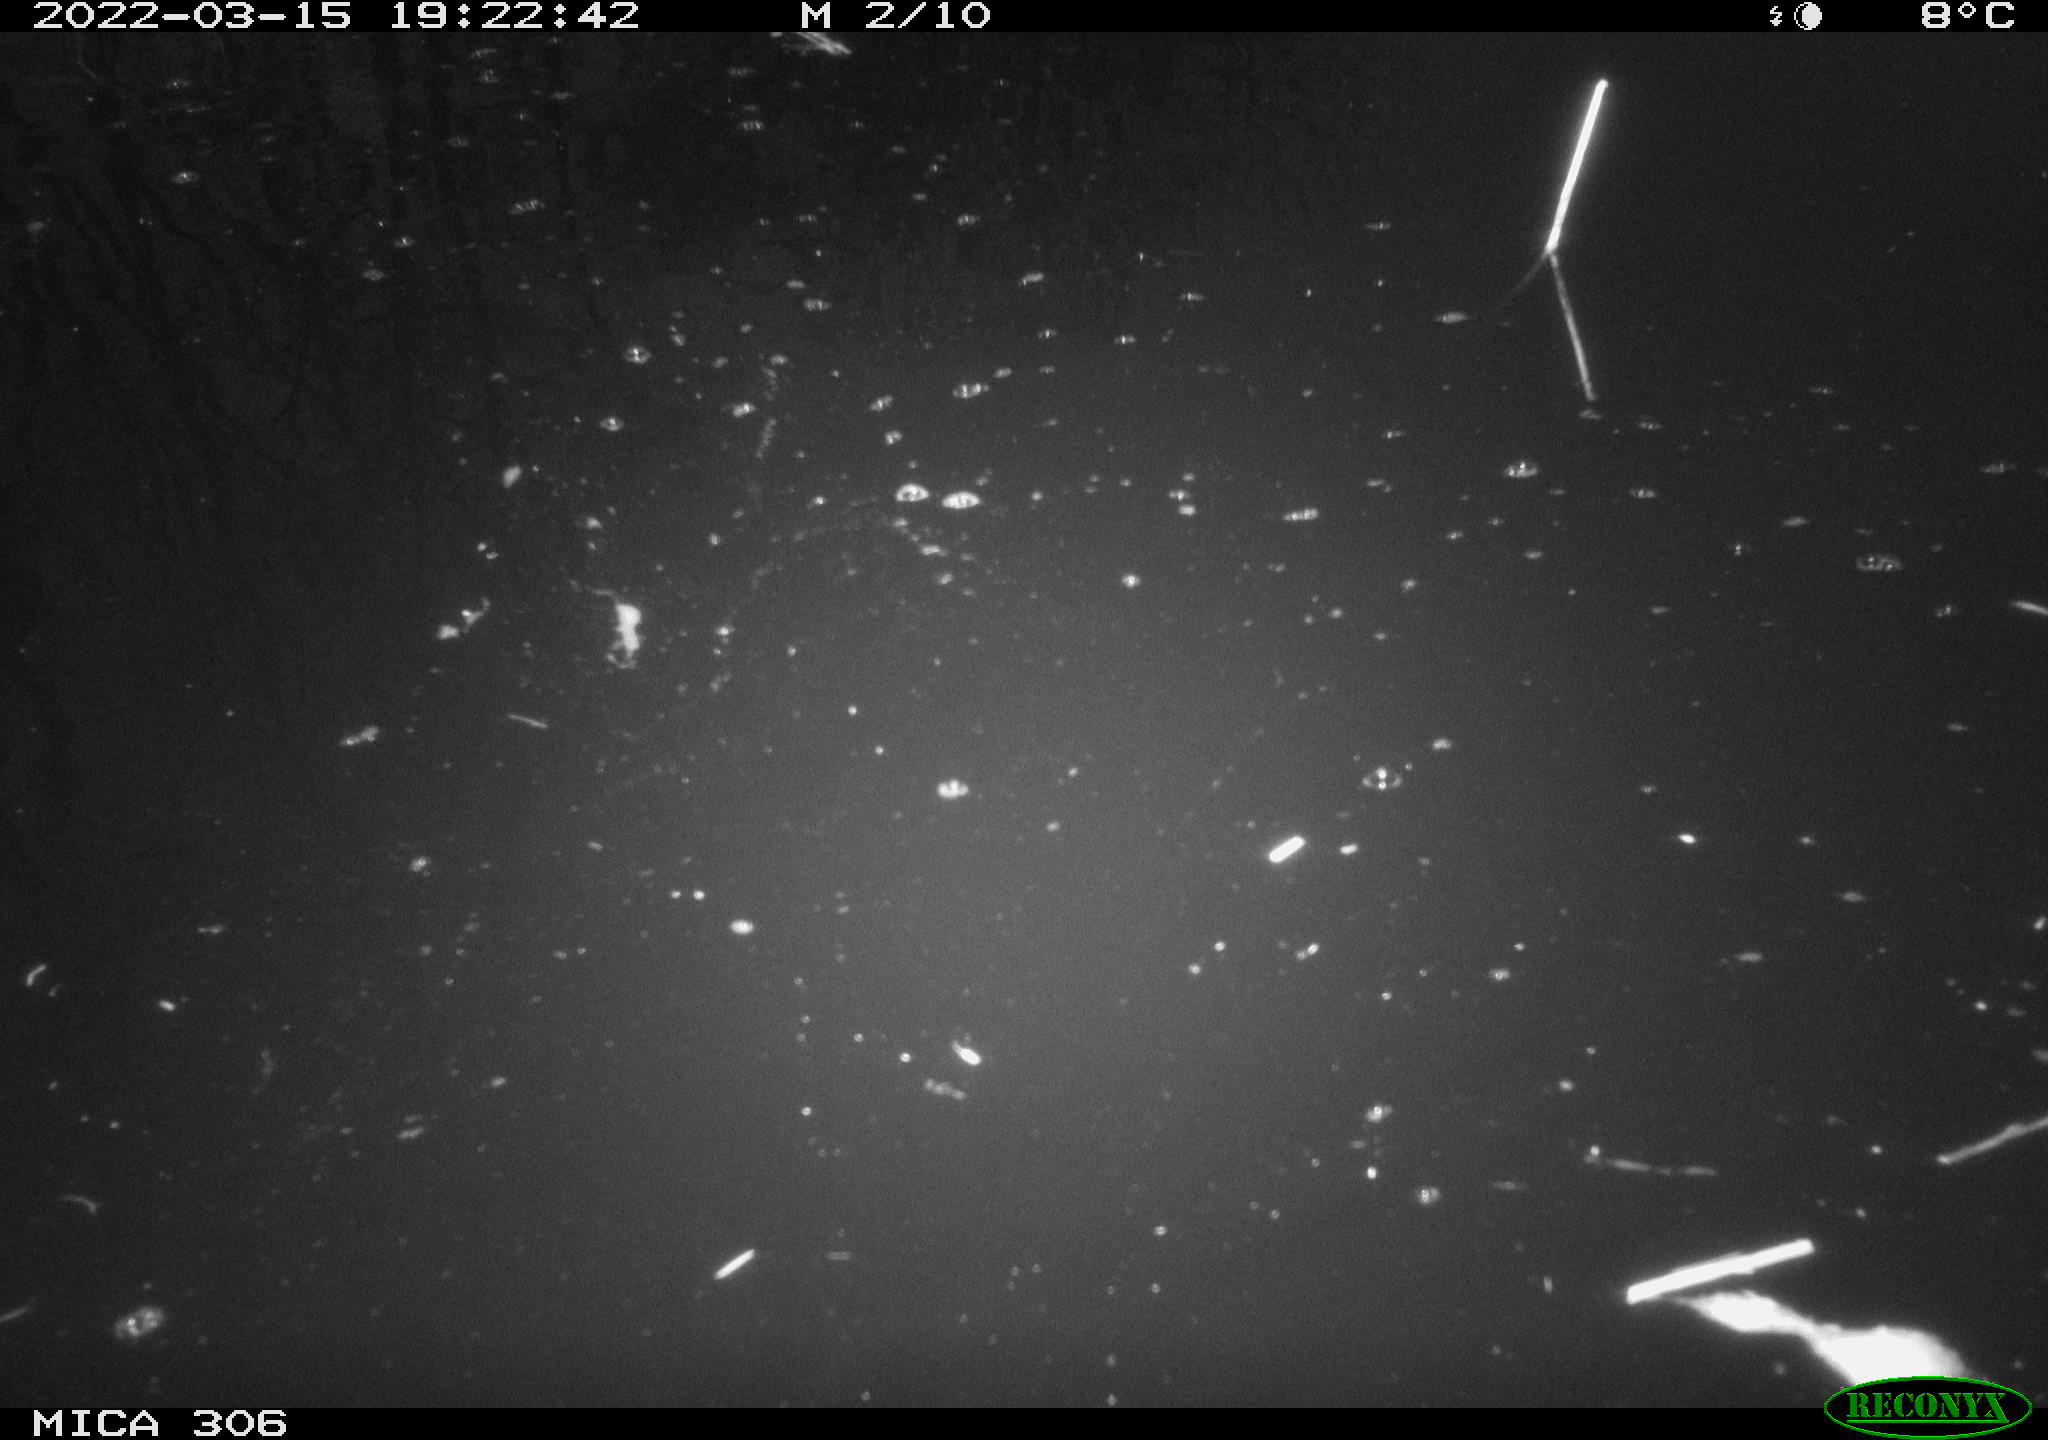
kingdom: Animalia
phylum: Chordata
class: Aves
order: Anseriformes
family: Anatidae
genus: Anas
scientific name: Anas platyrhynchos
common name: Mallard
